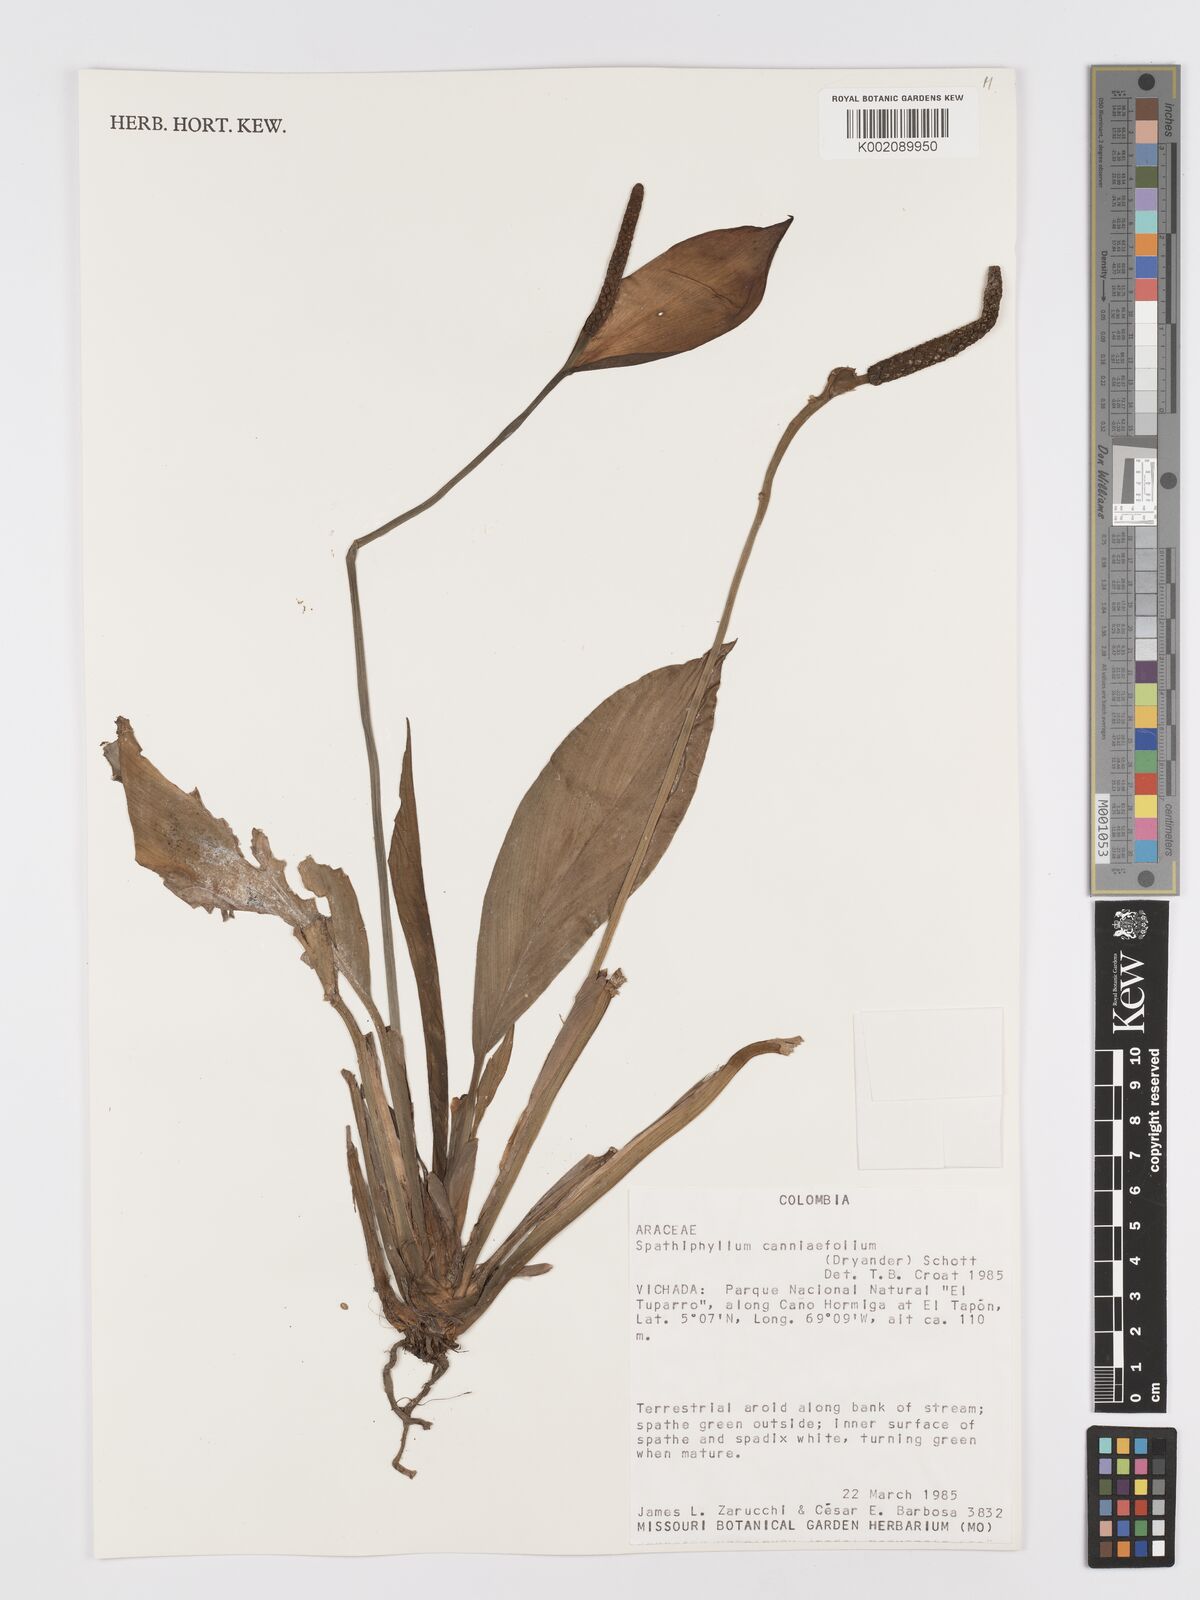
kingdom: Plantae
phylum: Tracheophyta
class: Liliopsida
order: Alismatales
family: Araceae
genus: Spathiphyllum
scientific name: Spathiphyllum cannifolium
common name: Spatheflower
